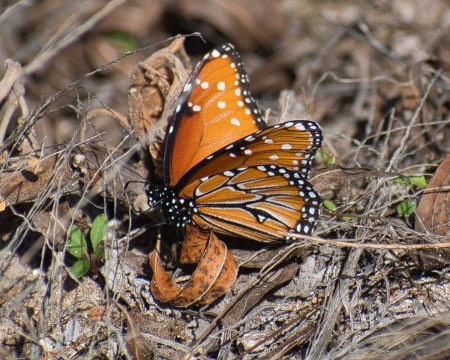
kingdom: Animalia
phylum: Arthropoda
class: Insecta
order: Lepidoptera
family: Nymphalidae
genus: Danaus
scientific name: Danaus gilippus
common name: Queen
